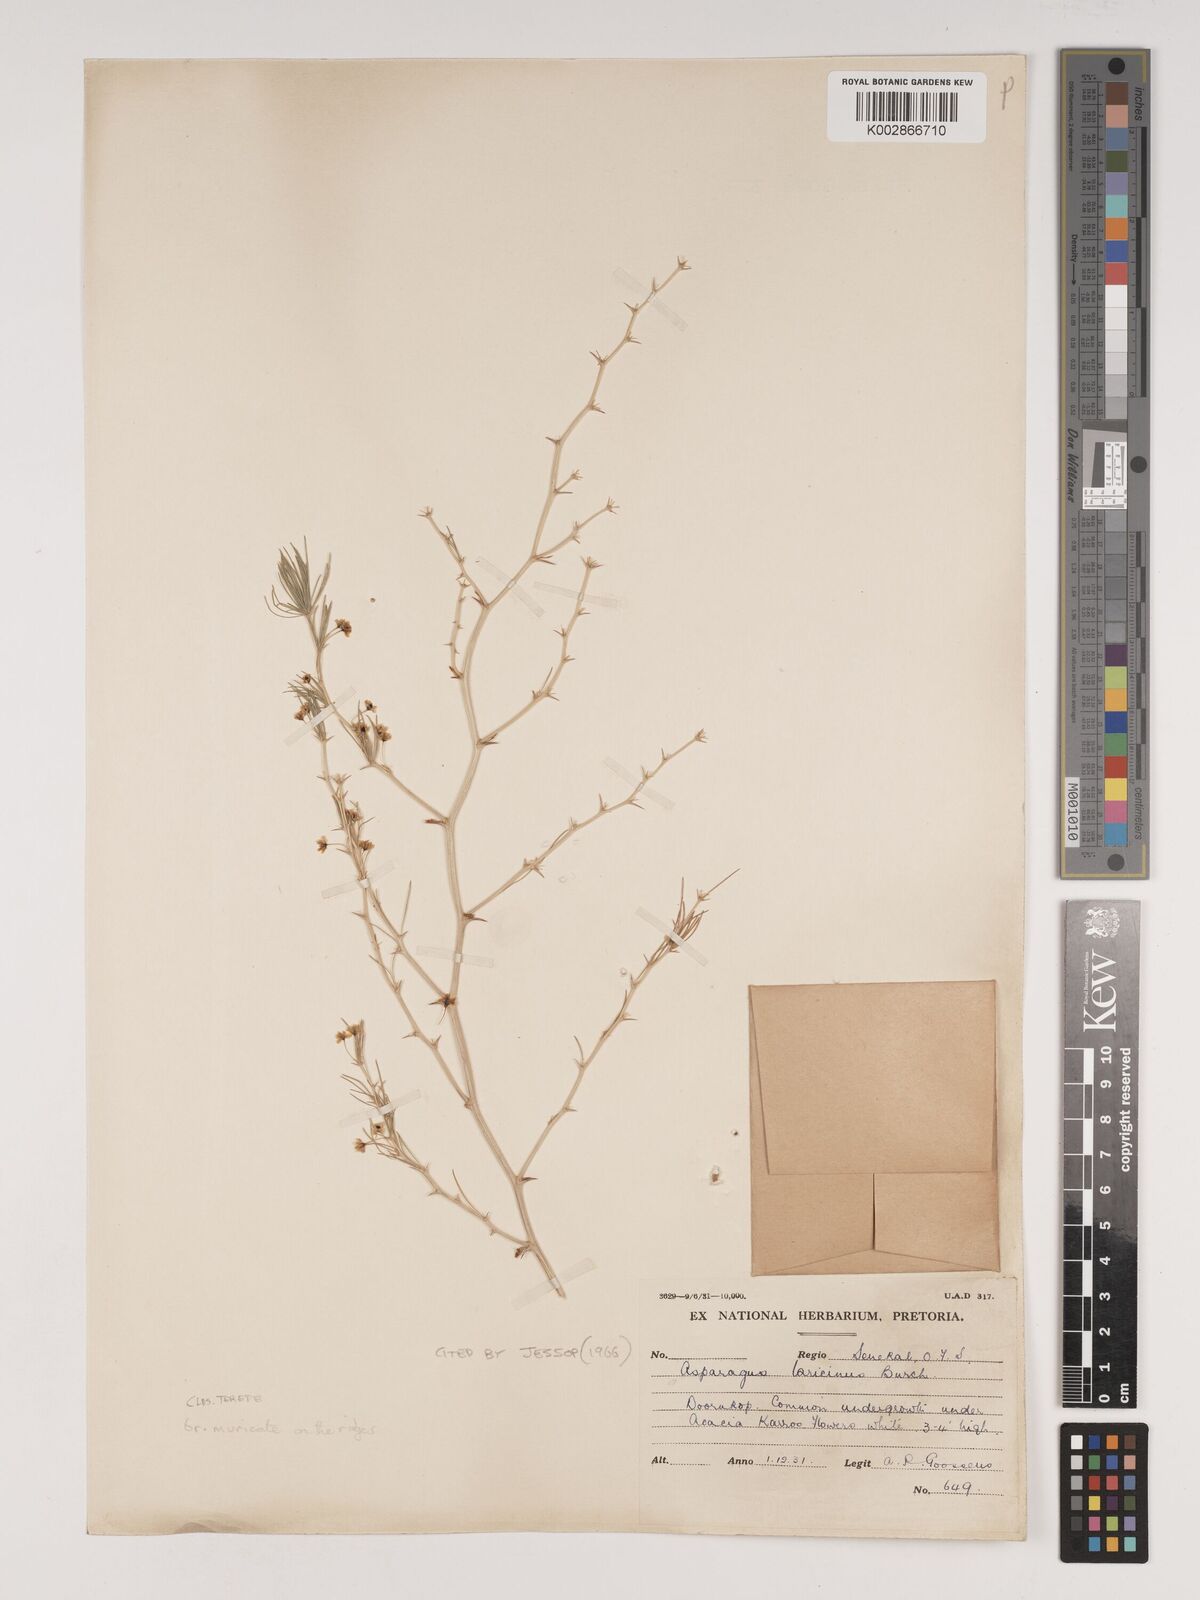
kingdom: Plantae
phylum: Tracheophyta
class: Liliopsida
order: Asparagales
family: Asparagaceae
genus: Asparagus
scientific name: Asparagus laricinus
